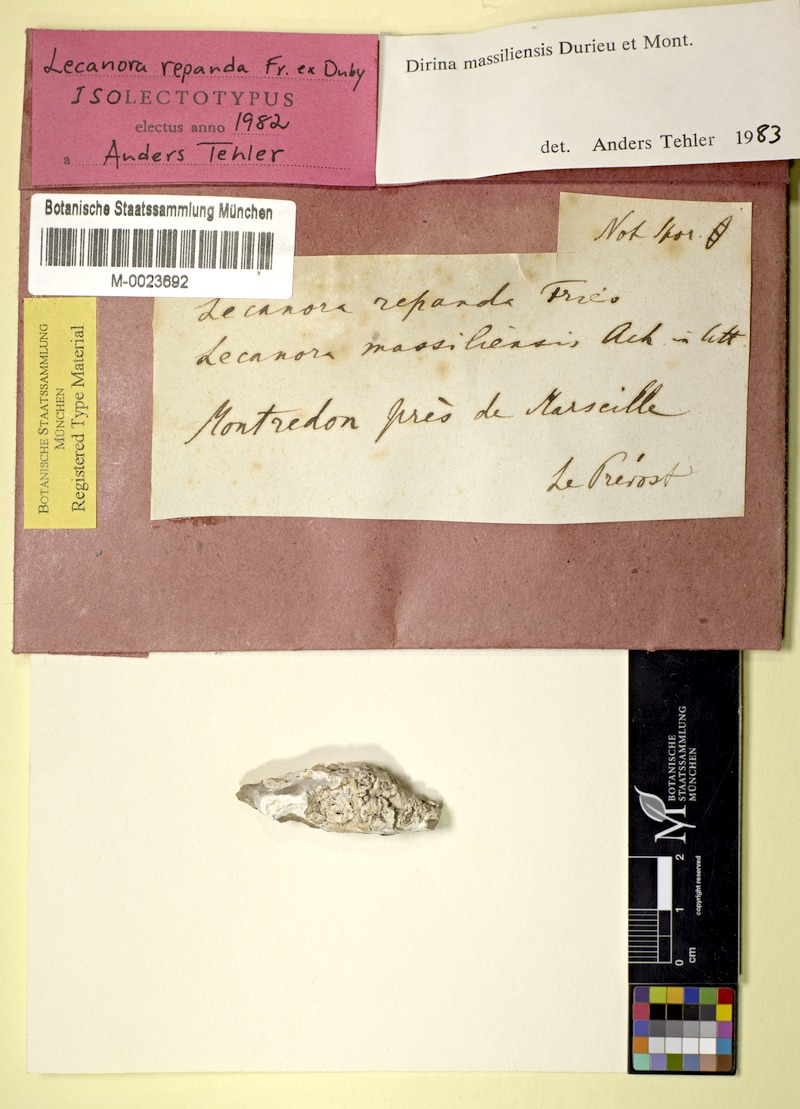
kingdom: Fungi
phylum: Ascomycota
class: Arthoniomycetes
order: Arthoniales
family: Roccellaceae
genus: Dirina
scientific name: Dirina massiliensis
